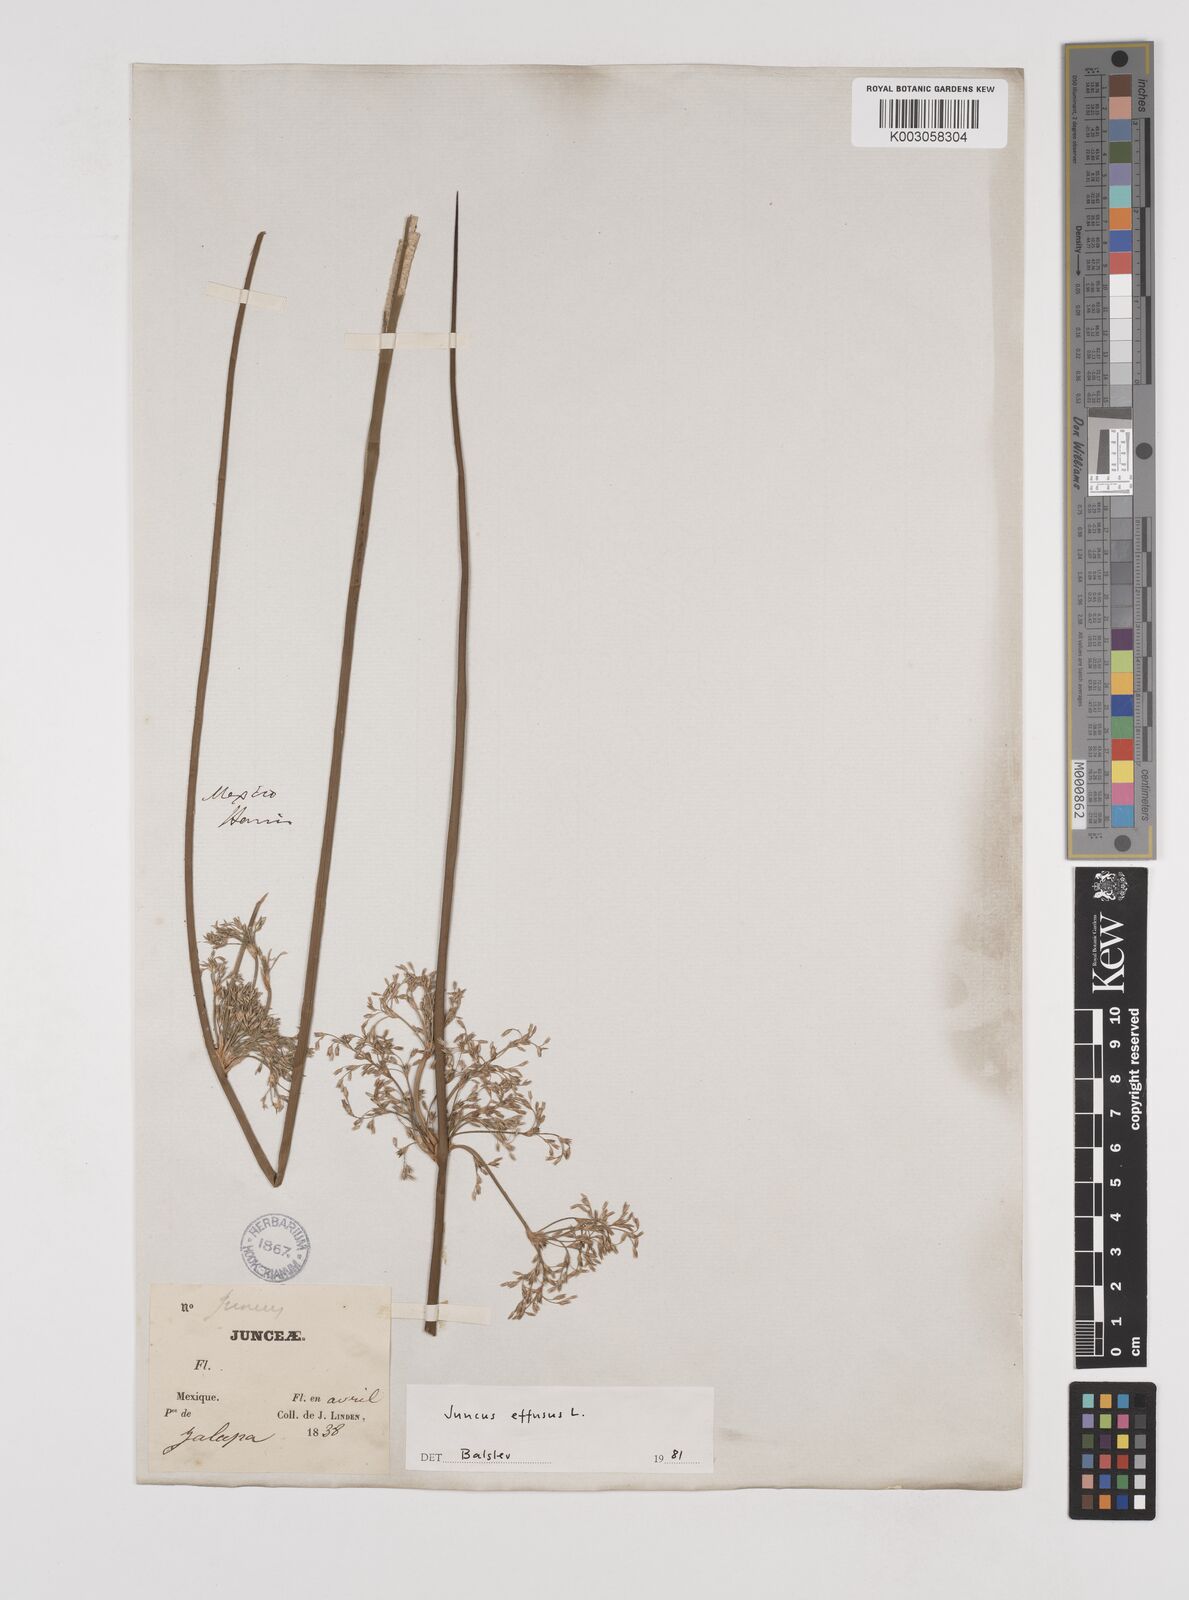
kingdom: Plantae
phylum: Tracheophyta
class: Liliopsida
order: Poales
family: Juncaceae
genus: Juncus
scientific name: Juncus effusus
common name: Soft rush
